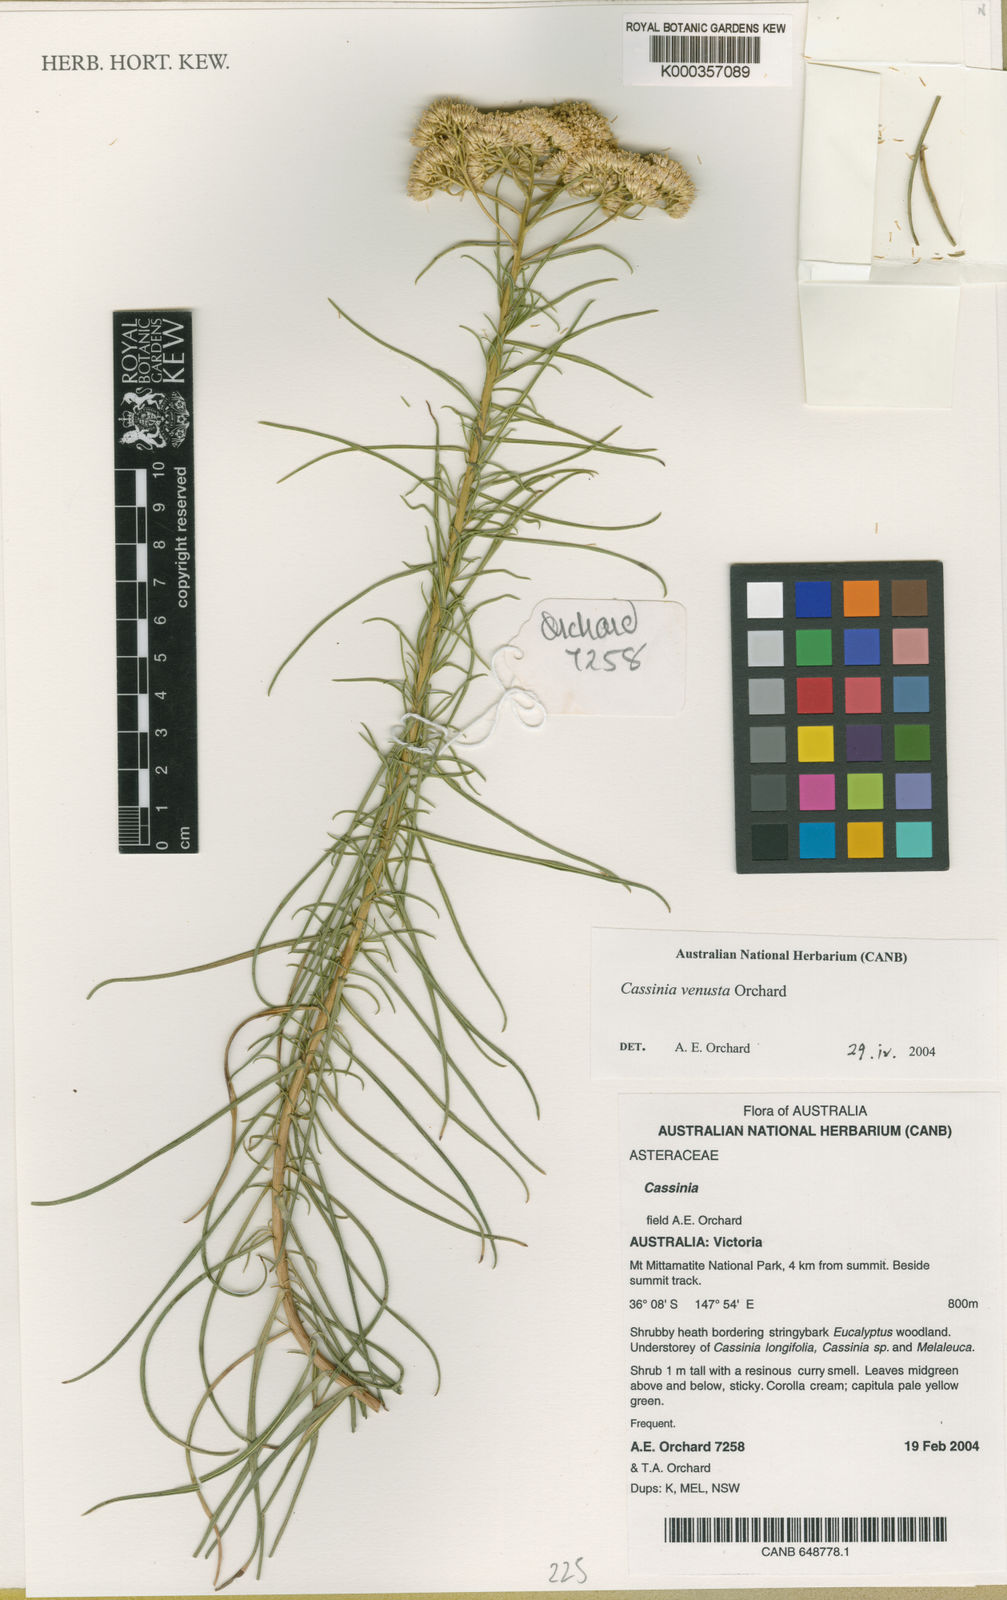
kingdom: Plantae
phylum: Tracheophyta
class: Magnoliopsida
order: Asterales
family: Asteraceae
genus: Cassinia
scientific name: Cassinia venusta
